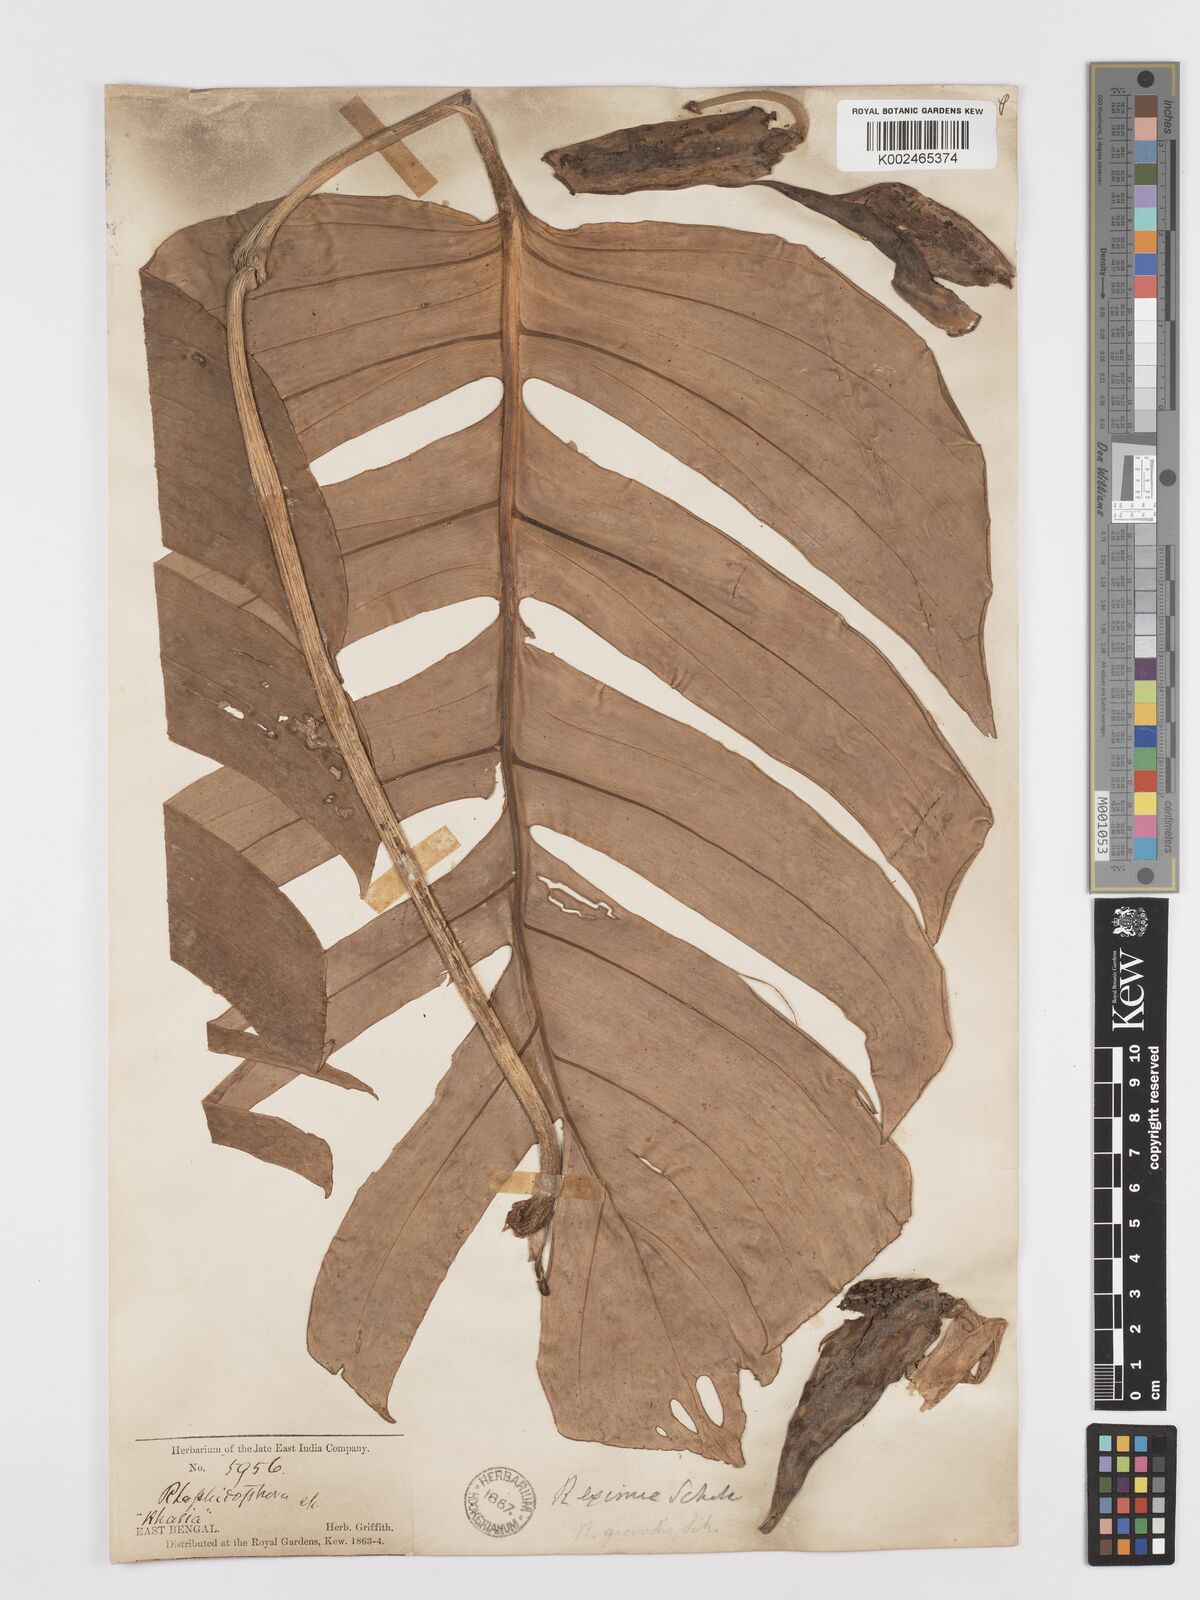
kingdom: Plantae
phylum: Tracheophyta
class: Liliopsida
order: Alismatales
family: Araceae
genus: Rhaphidophora
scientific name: Rhaphidophora decursiva
